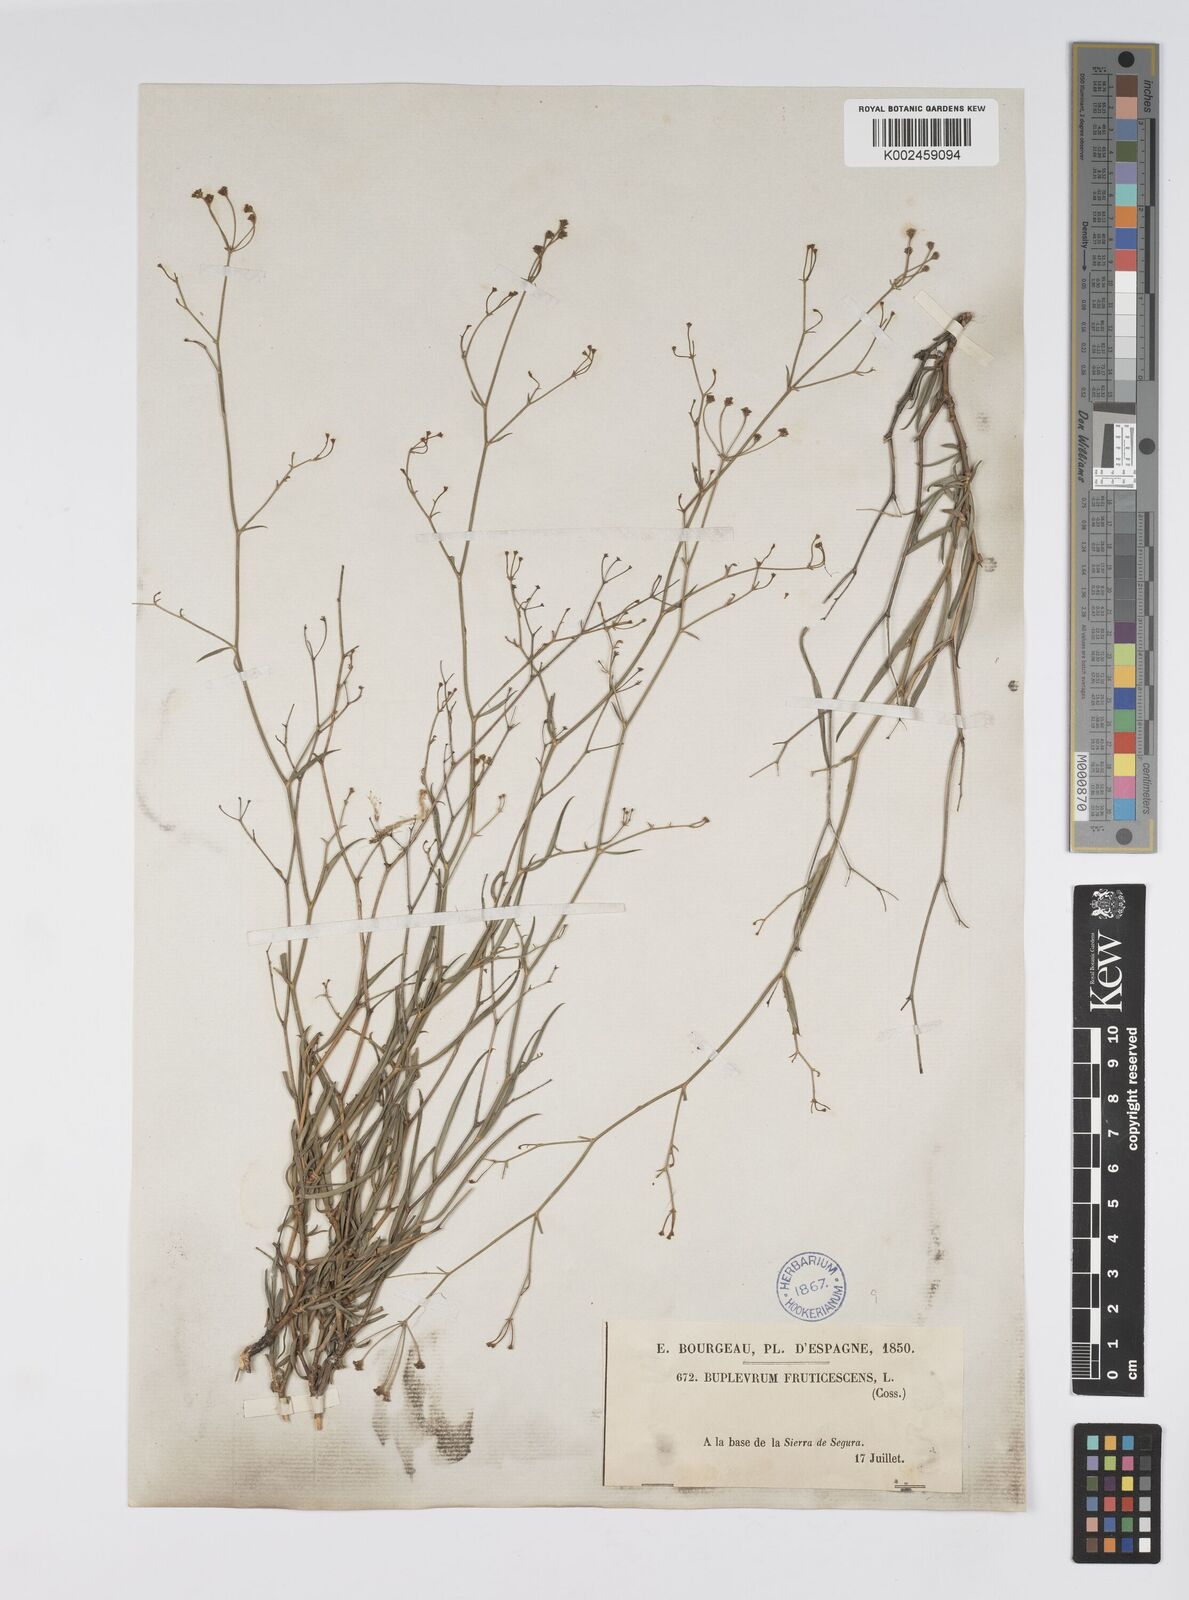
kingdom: Plantae
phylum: Tracheophyta
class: Magnoliopsida
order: Apiales
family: Apiaceae
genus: Bupleurum
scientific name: Bupleurum fruticescens
